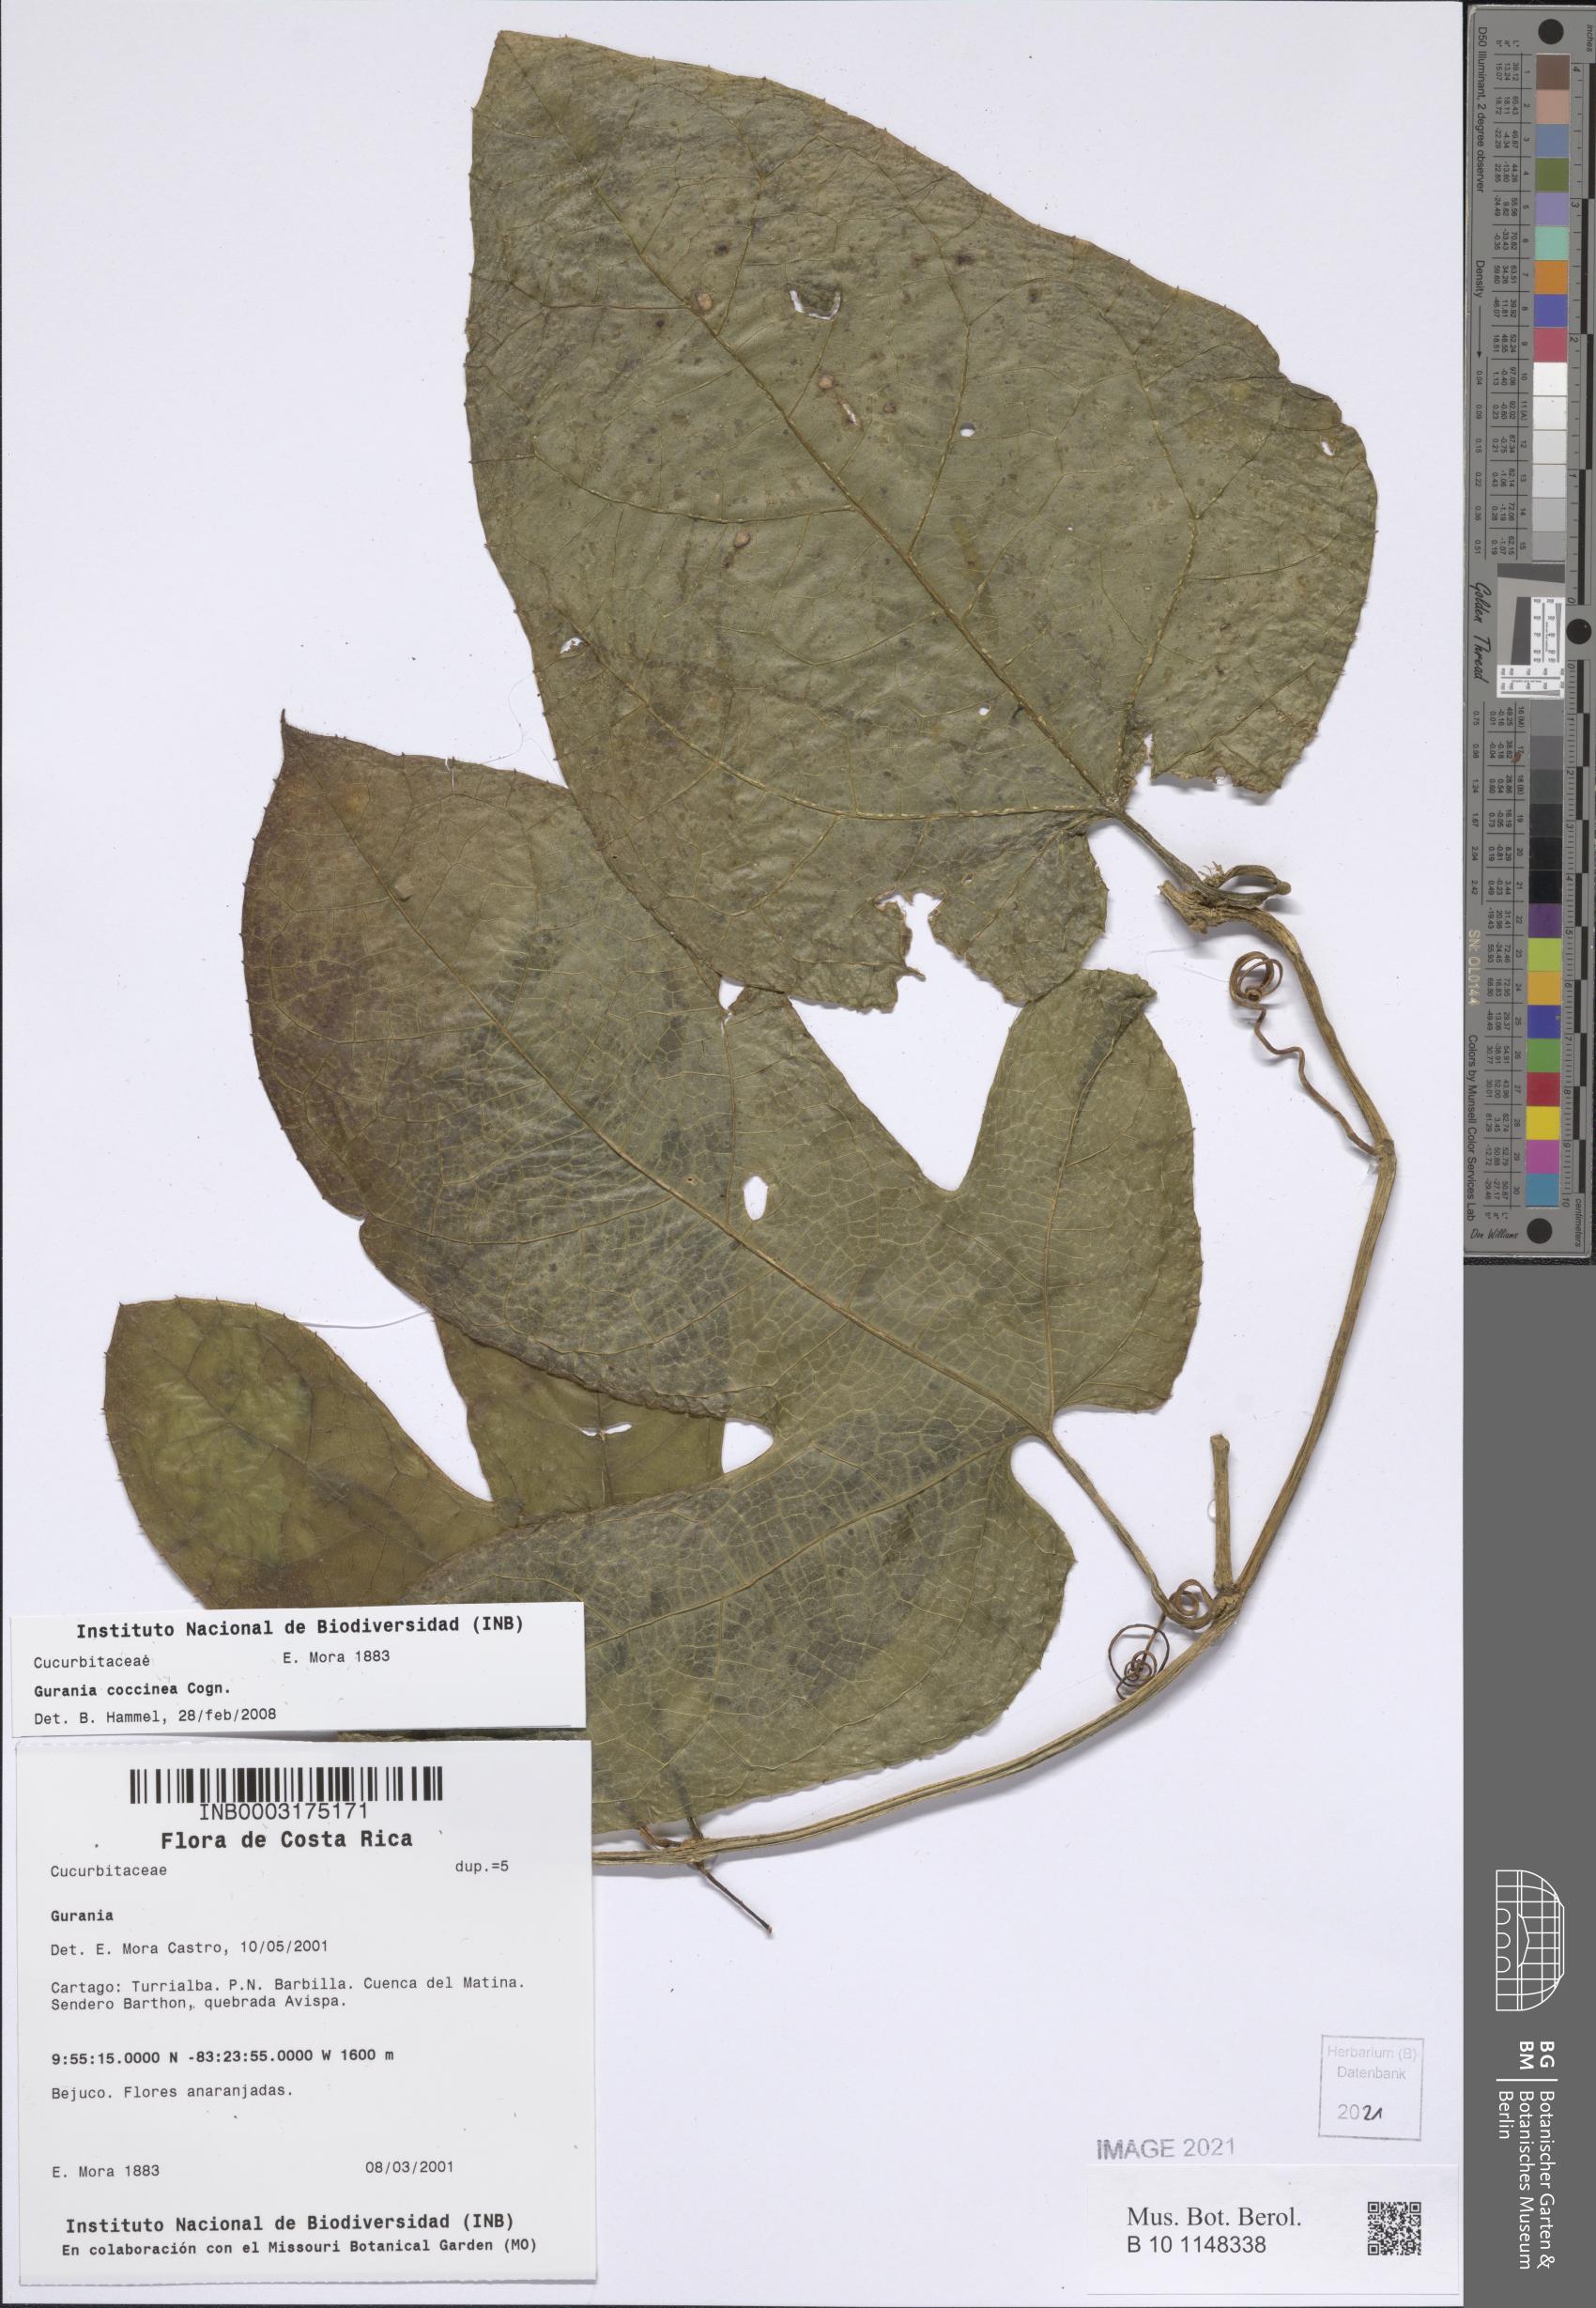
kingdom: Plantae
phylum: Tracheophyta
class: Magnoliopsida
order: Cucurbitales
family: Cucurbitaceae
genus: Gurania
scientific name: Gurania bignoniacea
